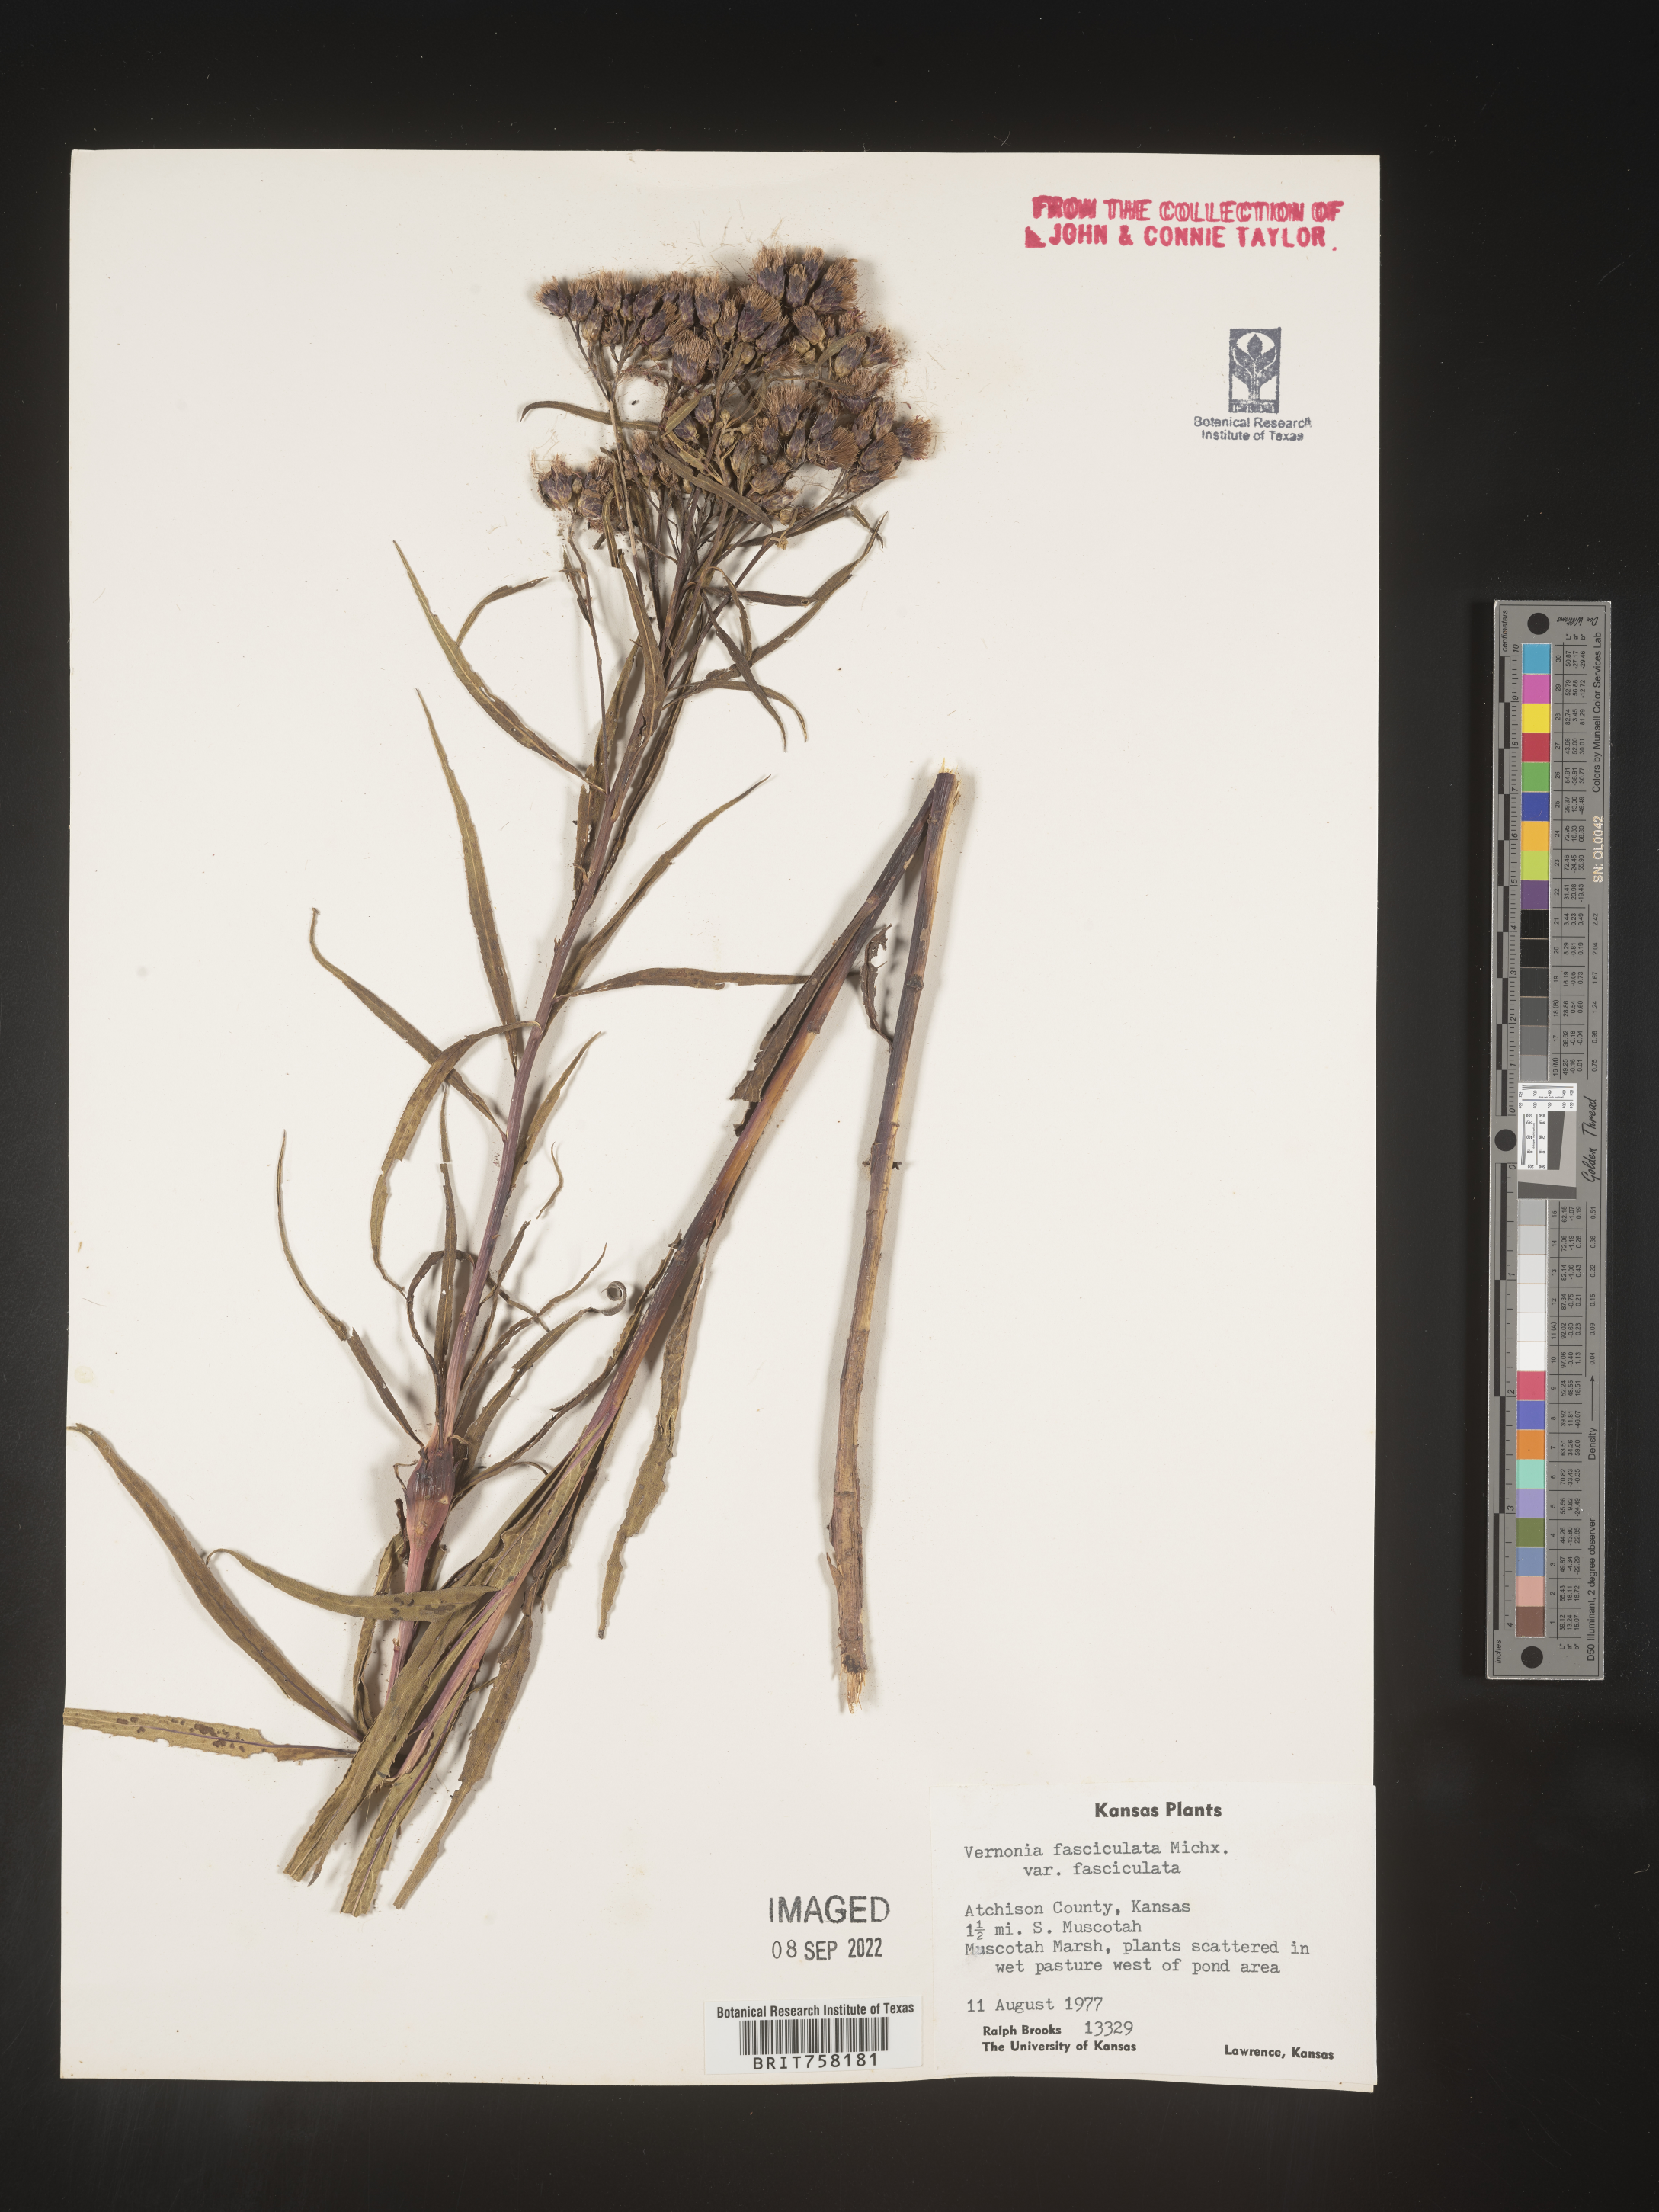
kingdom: Plantae
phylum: Tracheophyta
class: Magnoliopsida
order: Asterales
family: Asteraceae
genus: Vernonia
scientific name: Vernonia fasciculata
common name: Fascicled ironweed
